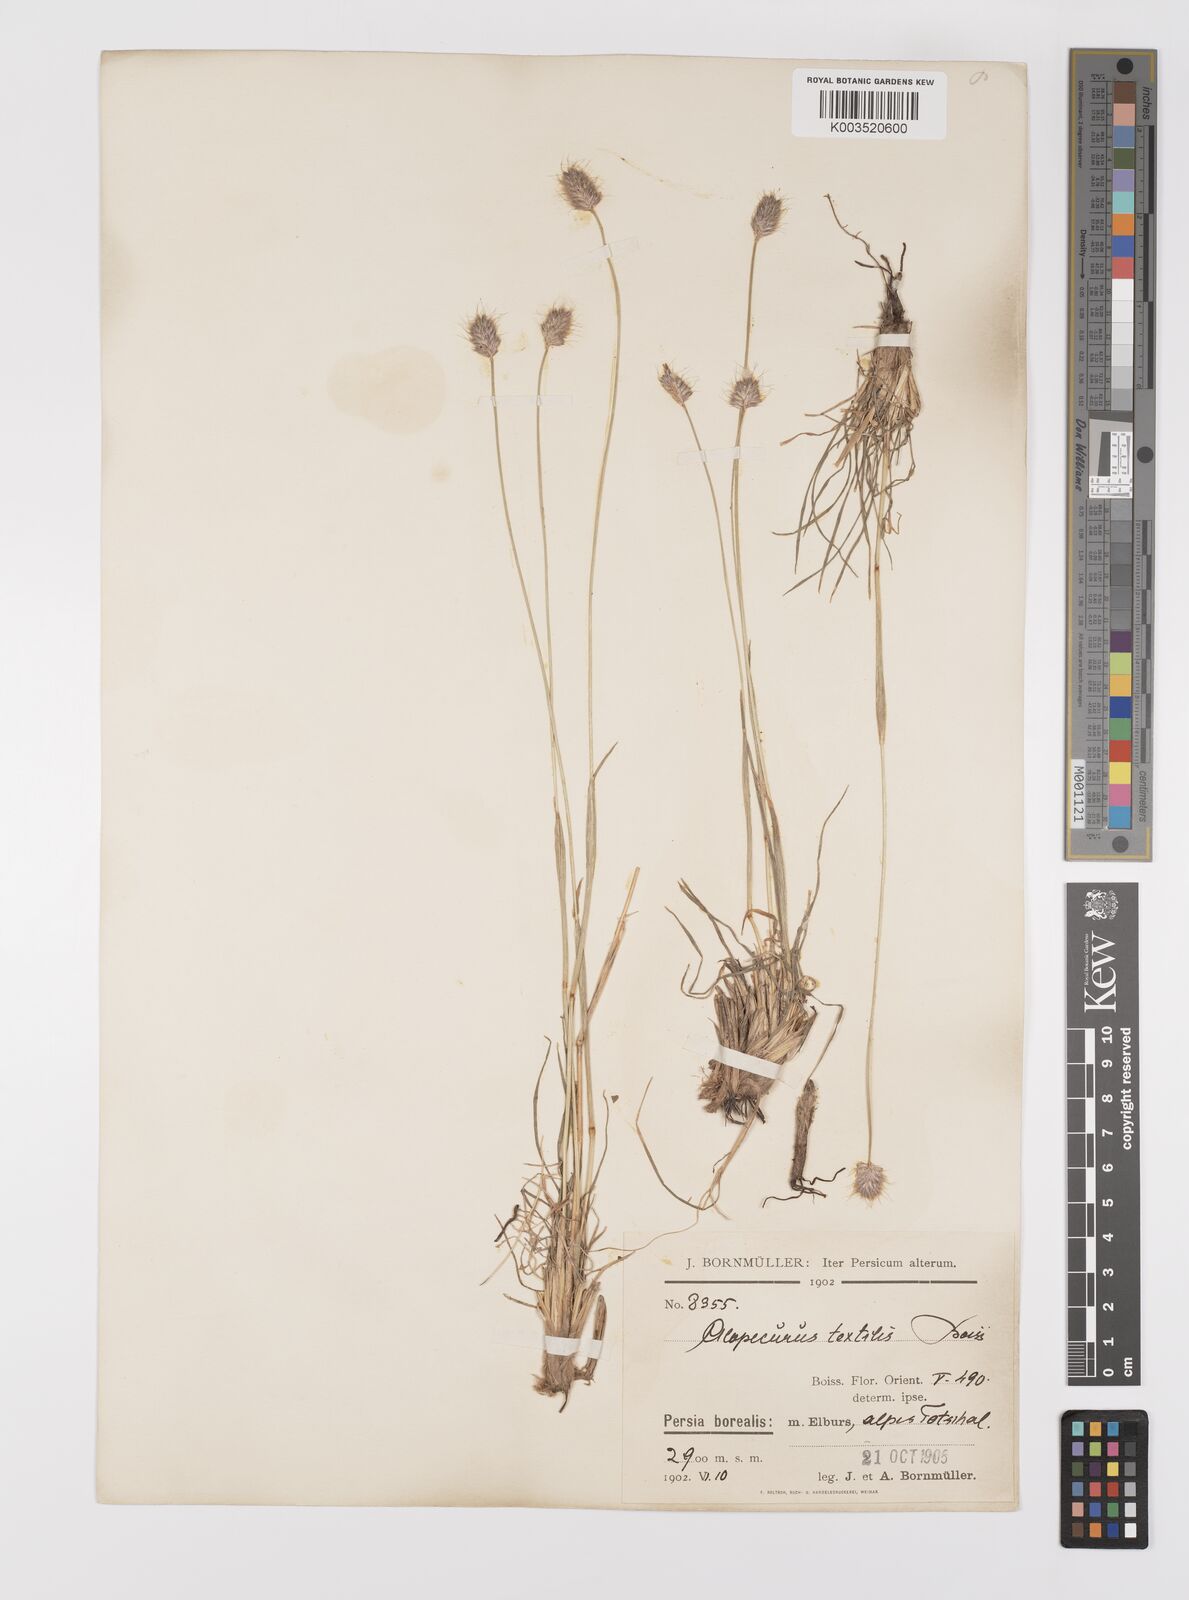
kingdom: Plantae
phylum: Tracheophyta
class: Liliopsida
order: Poales
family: Poaceae
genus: Alopecurus
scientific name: Alopecurus textilis
